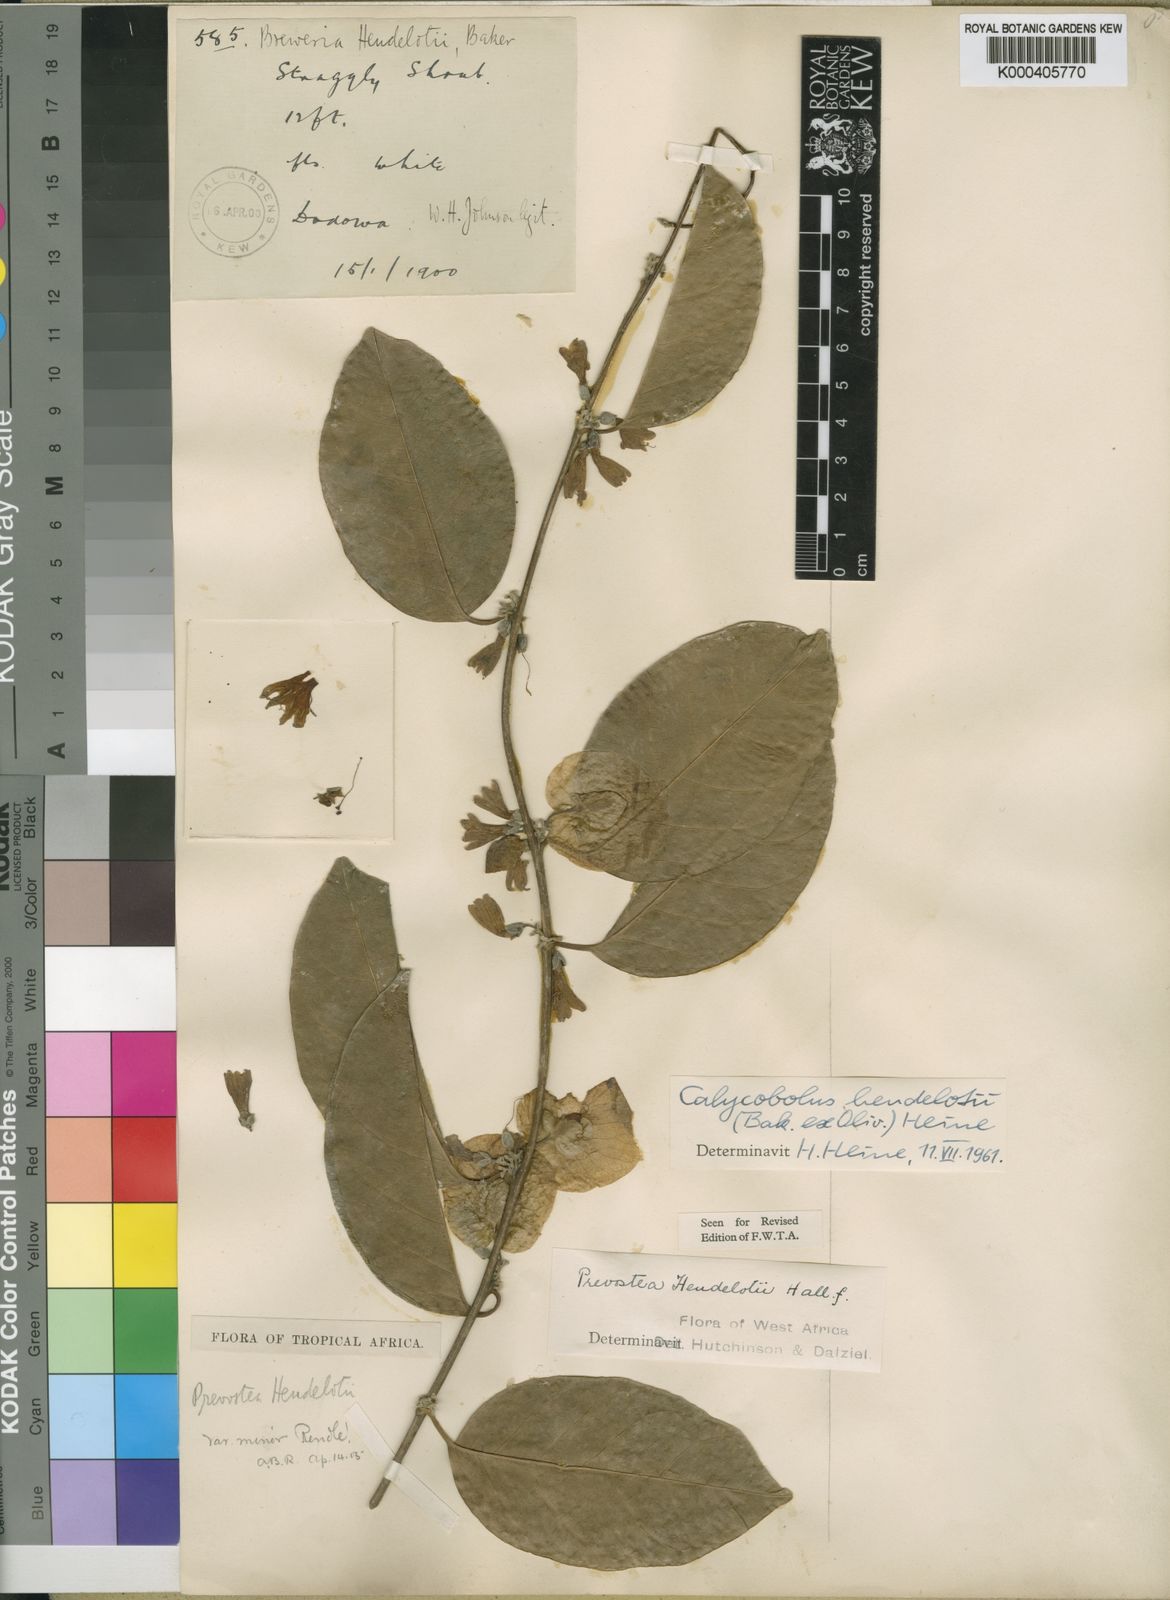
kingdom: Plantae
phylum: Tracheophyta
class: Magnoliopsida
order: Solanales
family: Convolvulaceae
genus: Calycobolus
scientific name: Calycobolus heudelotii
